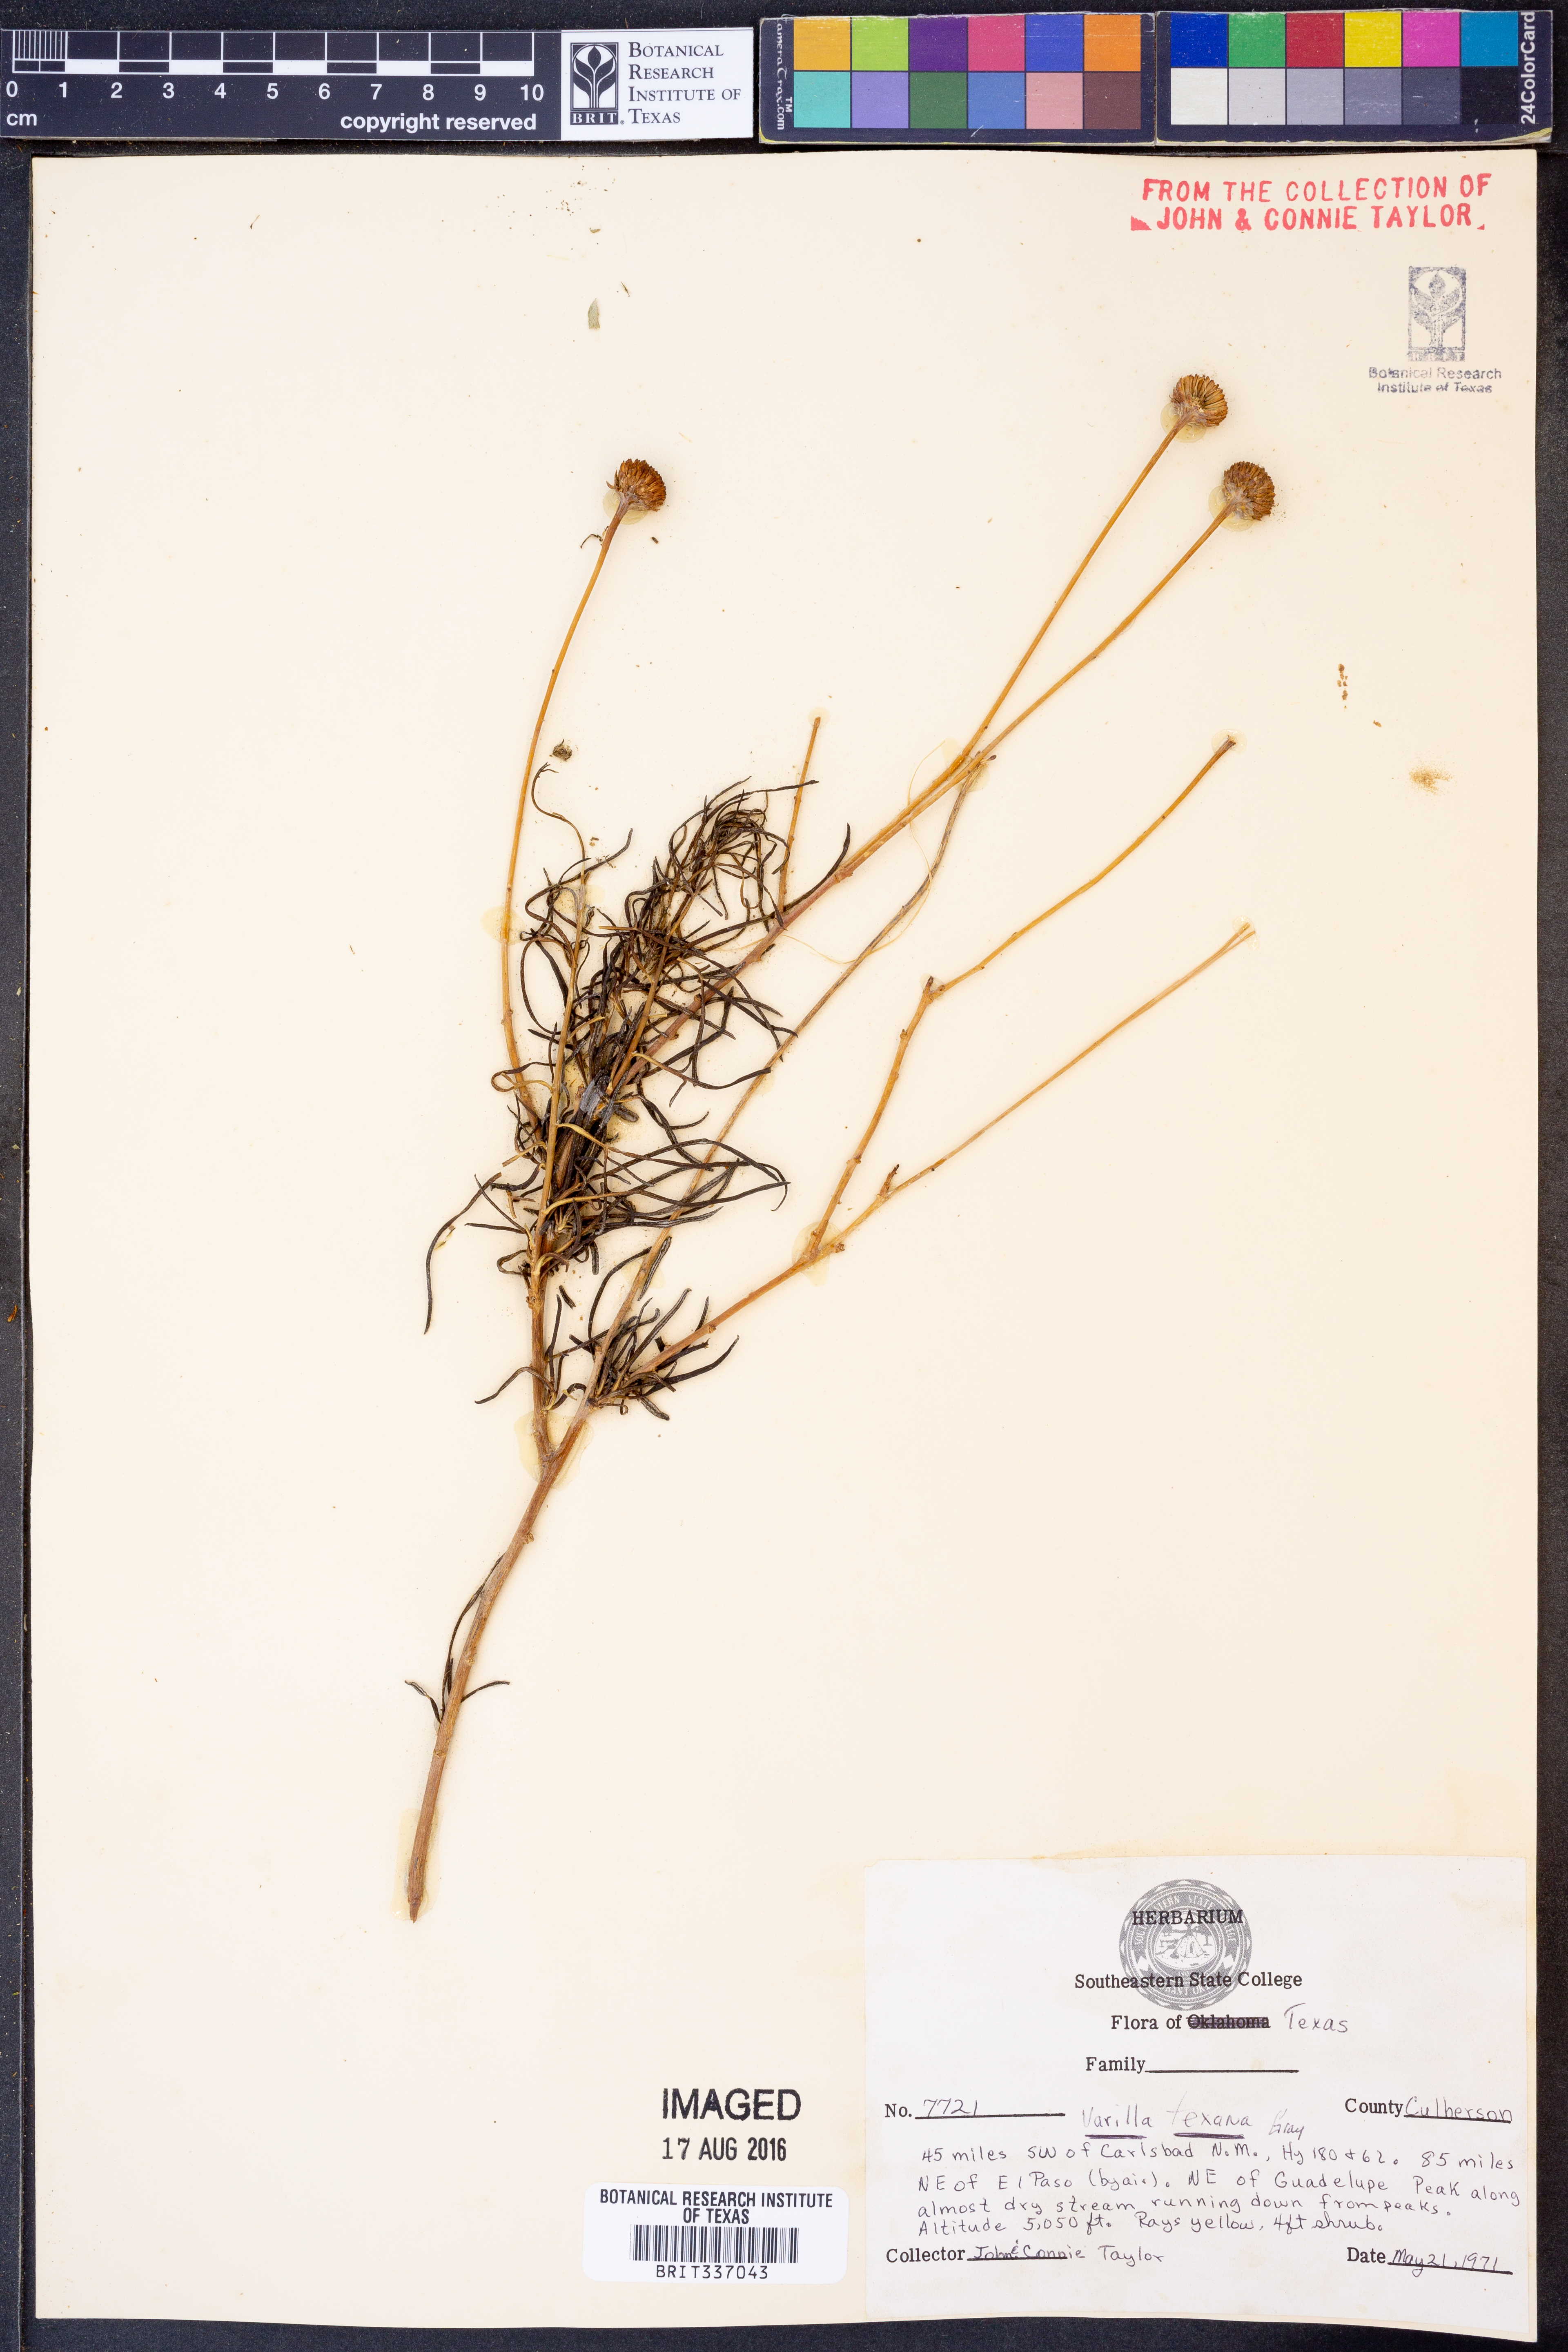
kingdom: Plantae
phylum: Tracheophyta
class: Magnoliopsida
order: Asterales
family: Asteraceae
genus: Varilla
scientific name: Varilla texana
